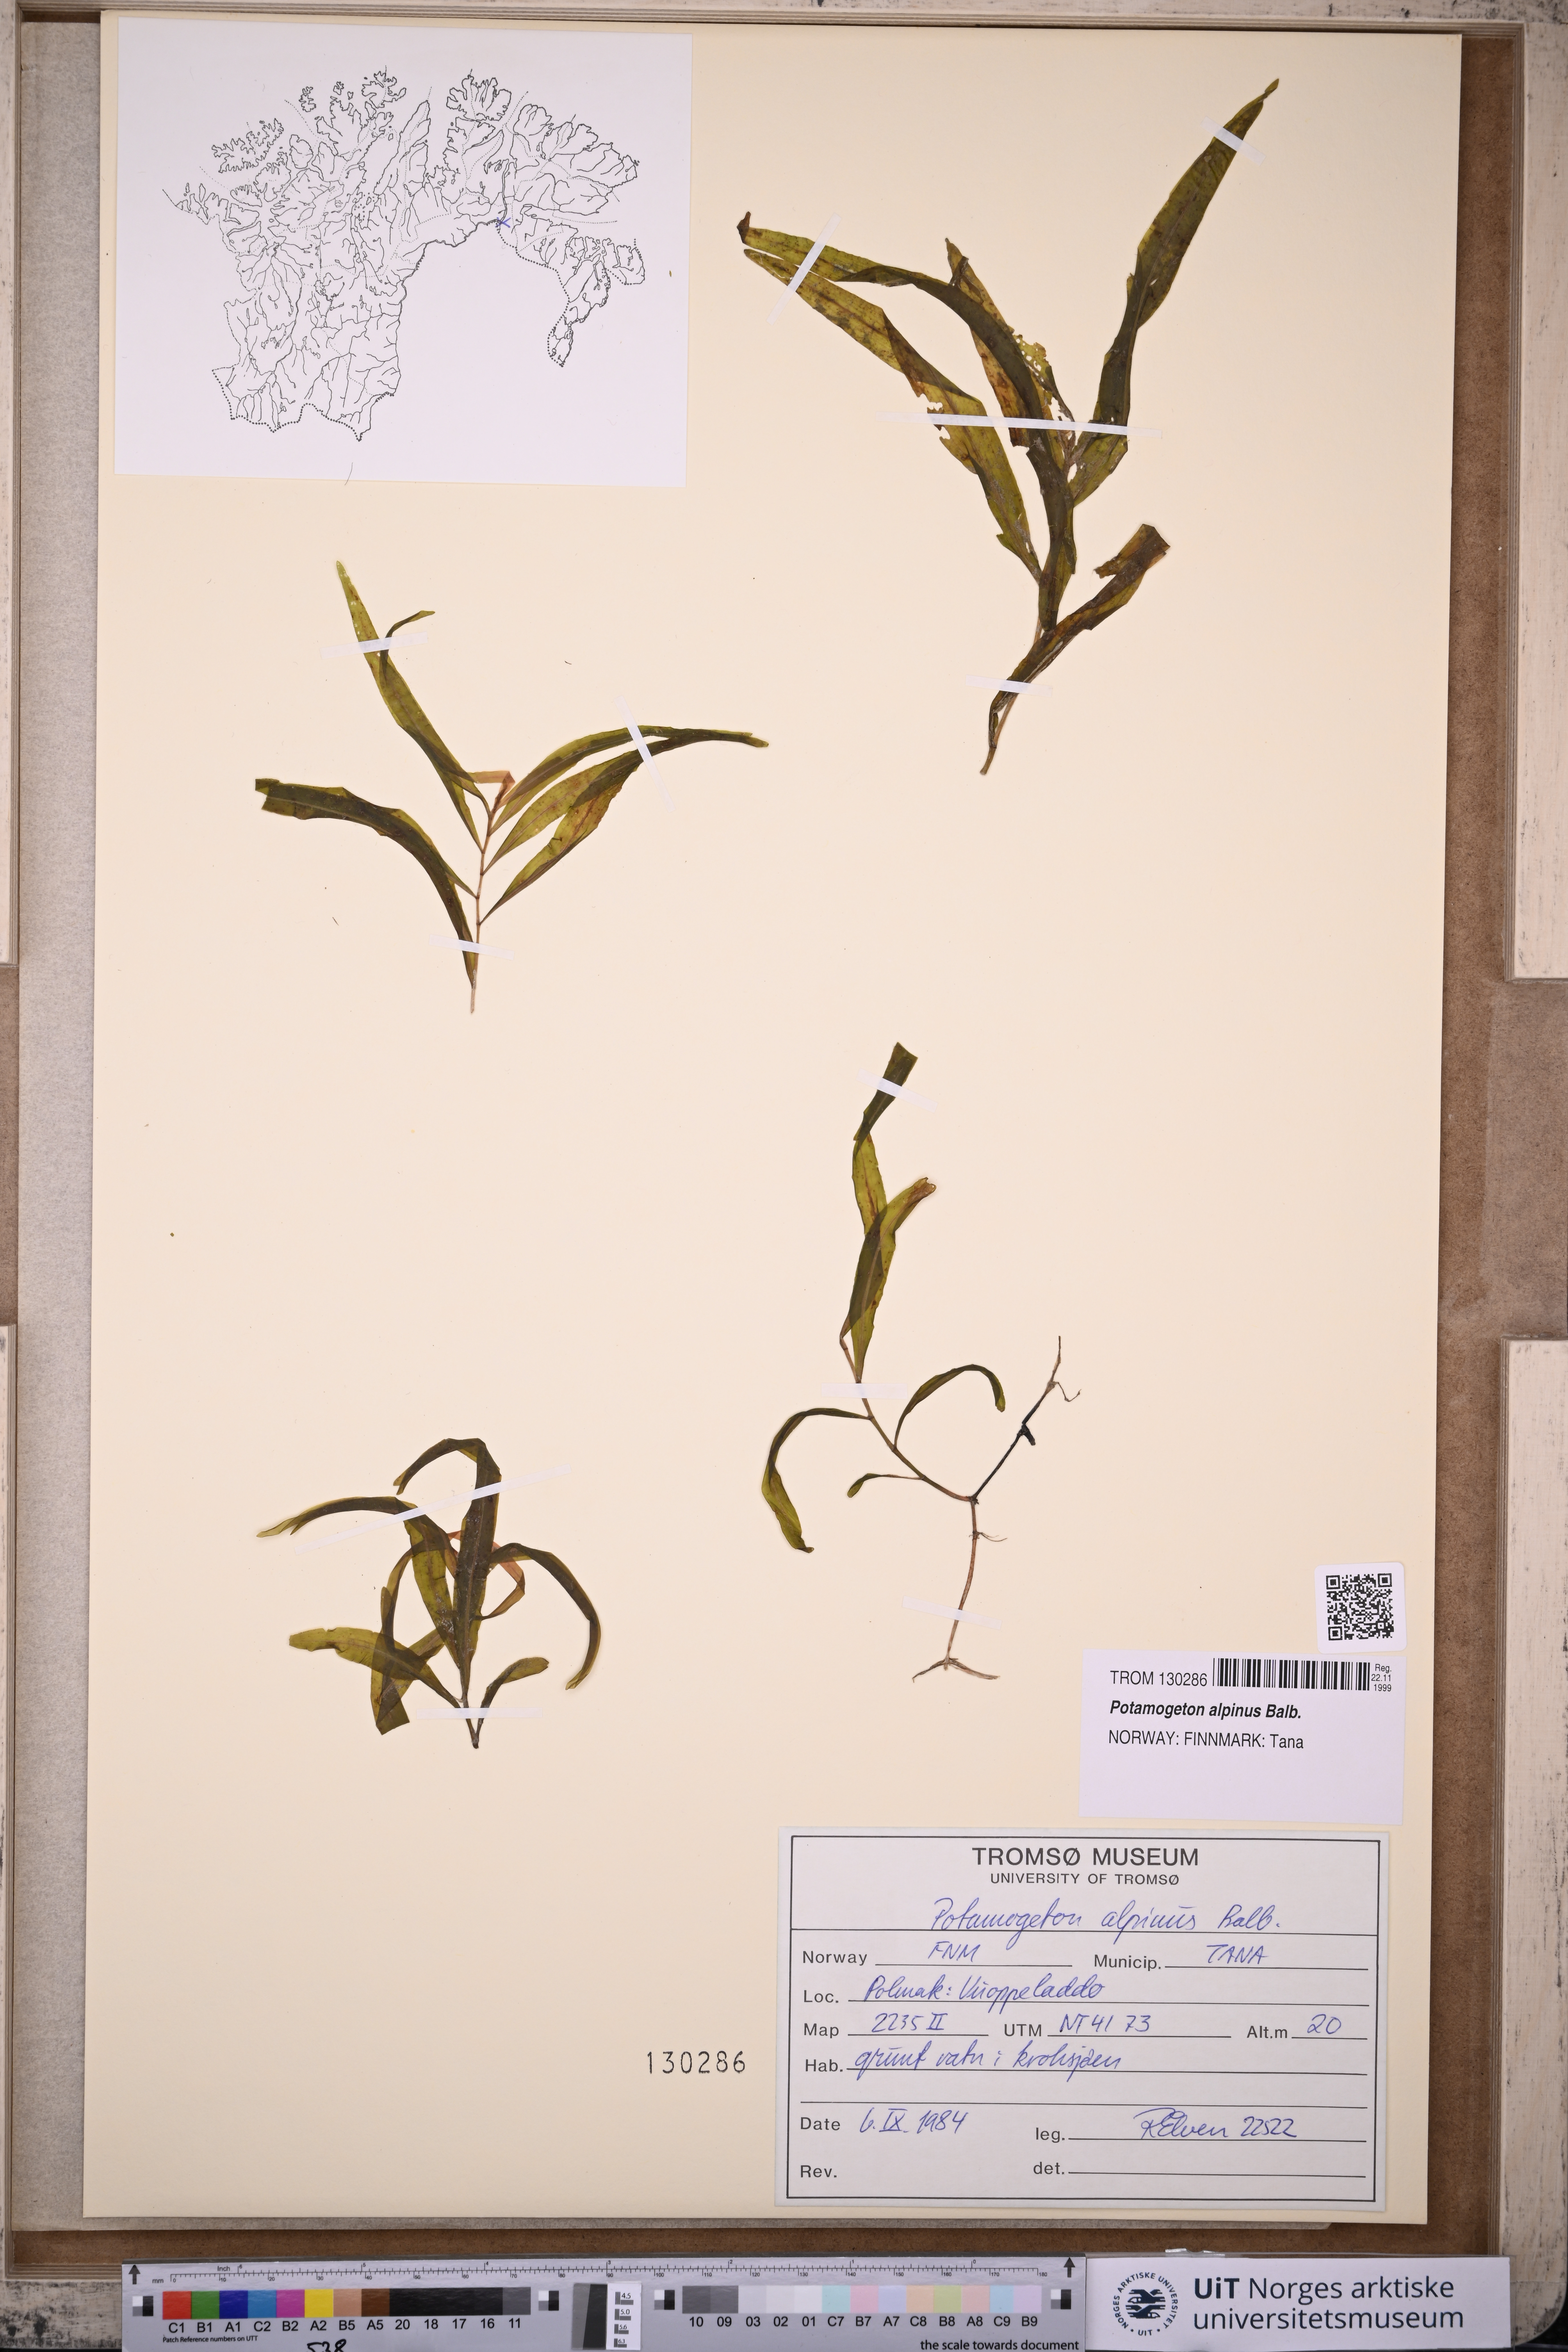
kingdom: Plantae
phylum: Tracheophyta
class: Liliopsida
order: Alismatales
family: Potamogetonaceae
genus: Potamogeton
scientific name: Potamogeton alpinus
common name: Red pondweed
